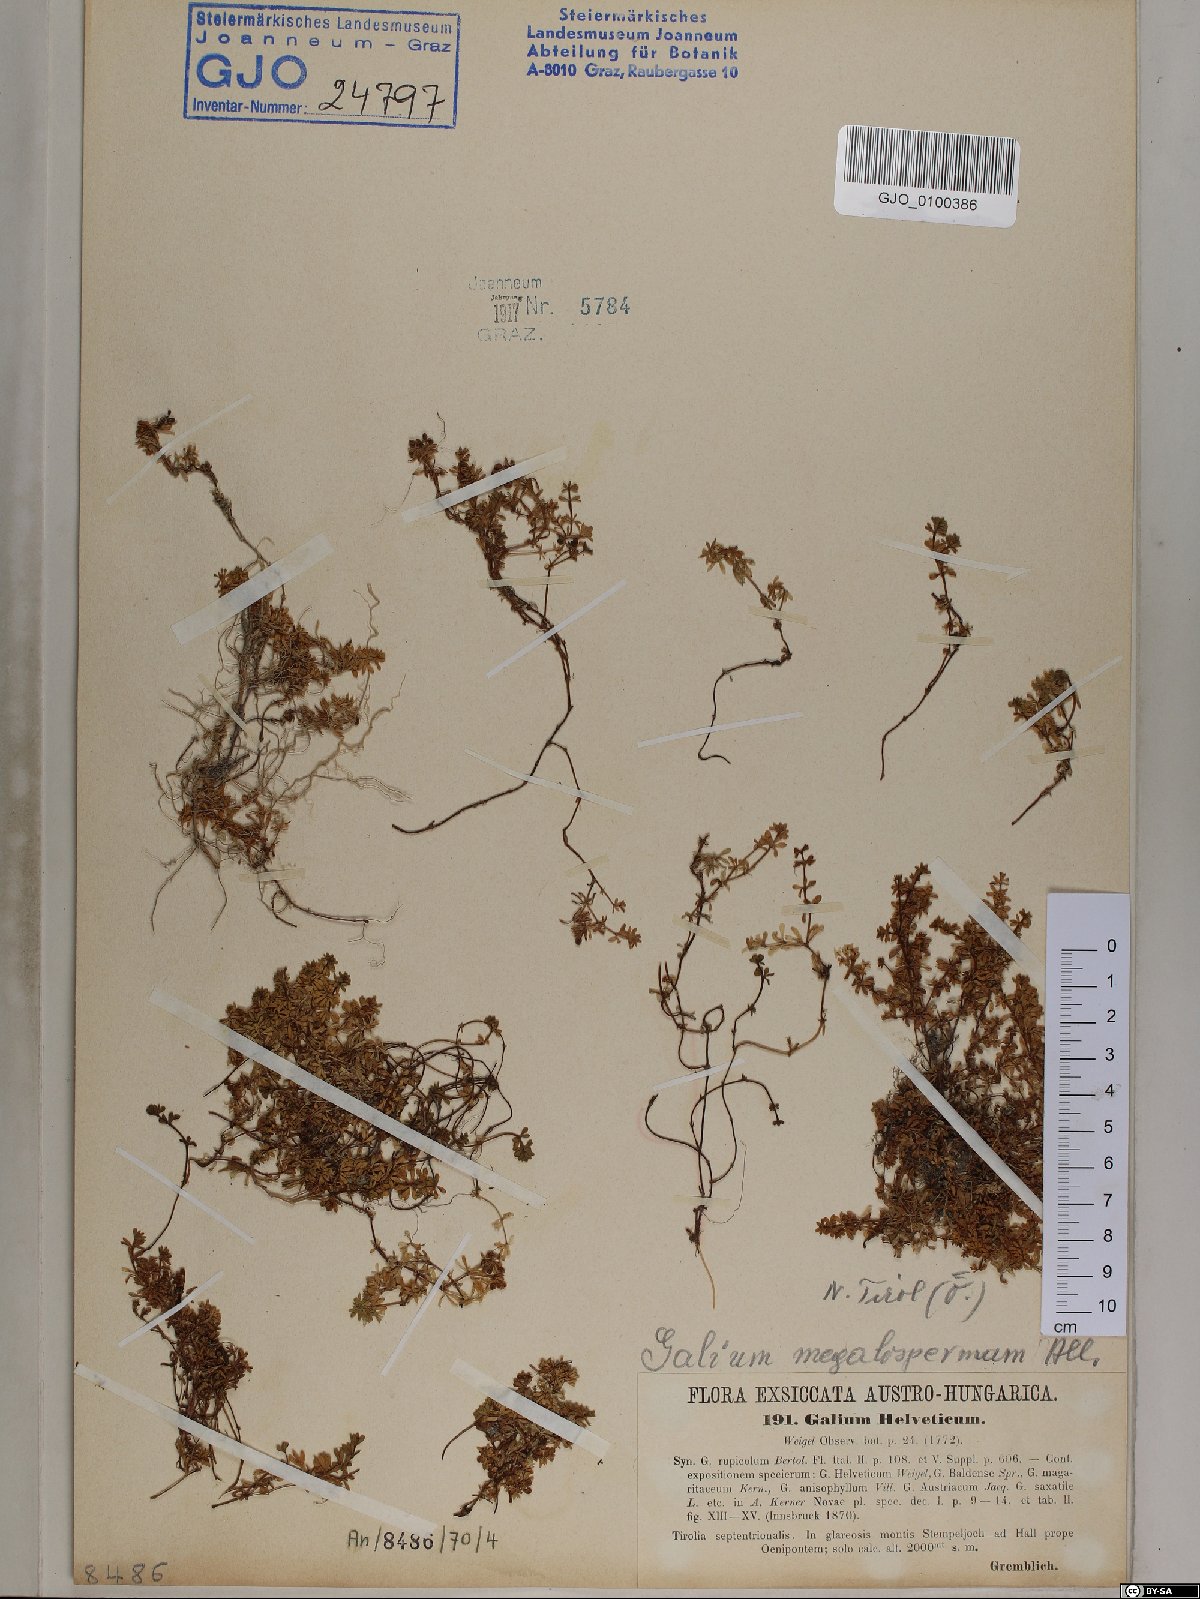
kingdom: Plantae
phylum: Tracheophyta
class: Magnoliopsida
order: Gentianales
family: Rubiaceae
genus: Galium
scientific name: Galium saxatile
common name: Heath bedstraw
